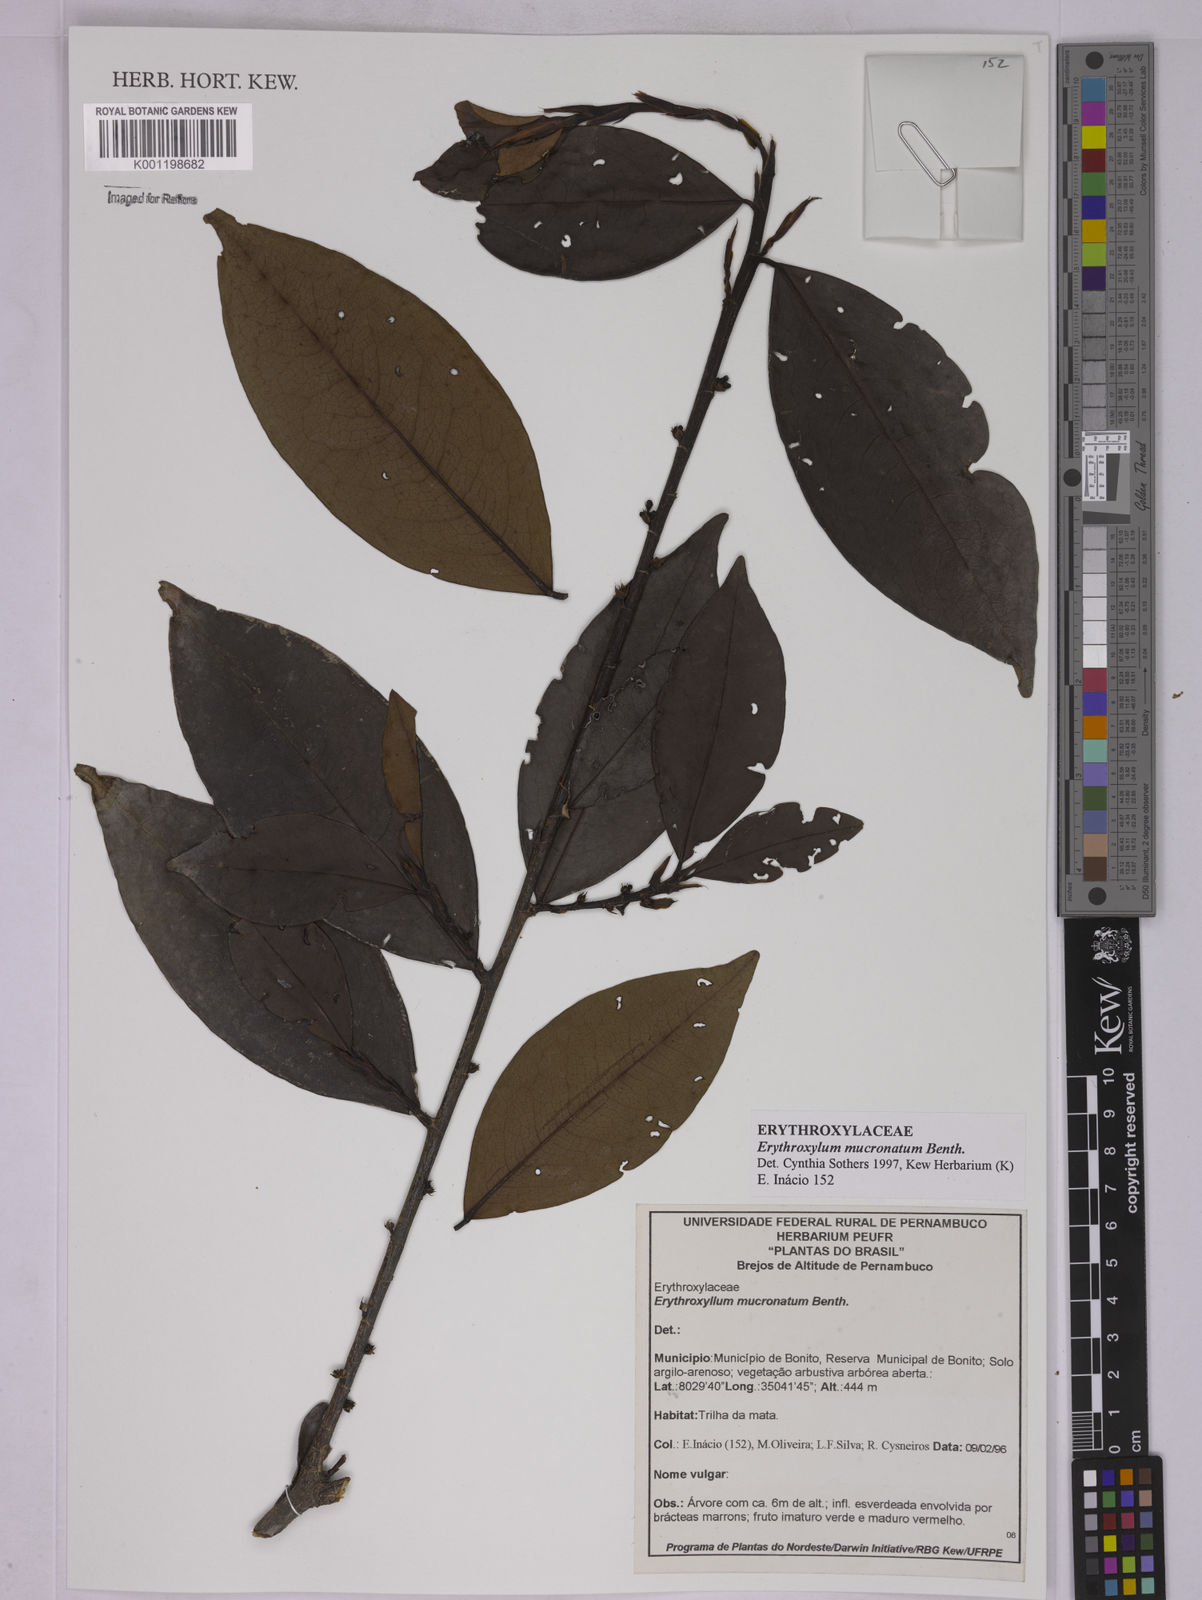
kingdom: Plantae
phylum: Tracheophyta
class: Magnoliopsida
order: Malpighiales
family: Erythroxylaceae
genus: Erythroxylum
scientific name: Erythroxylum mucronatum
